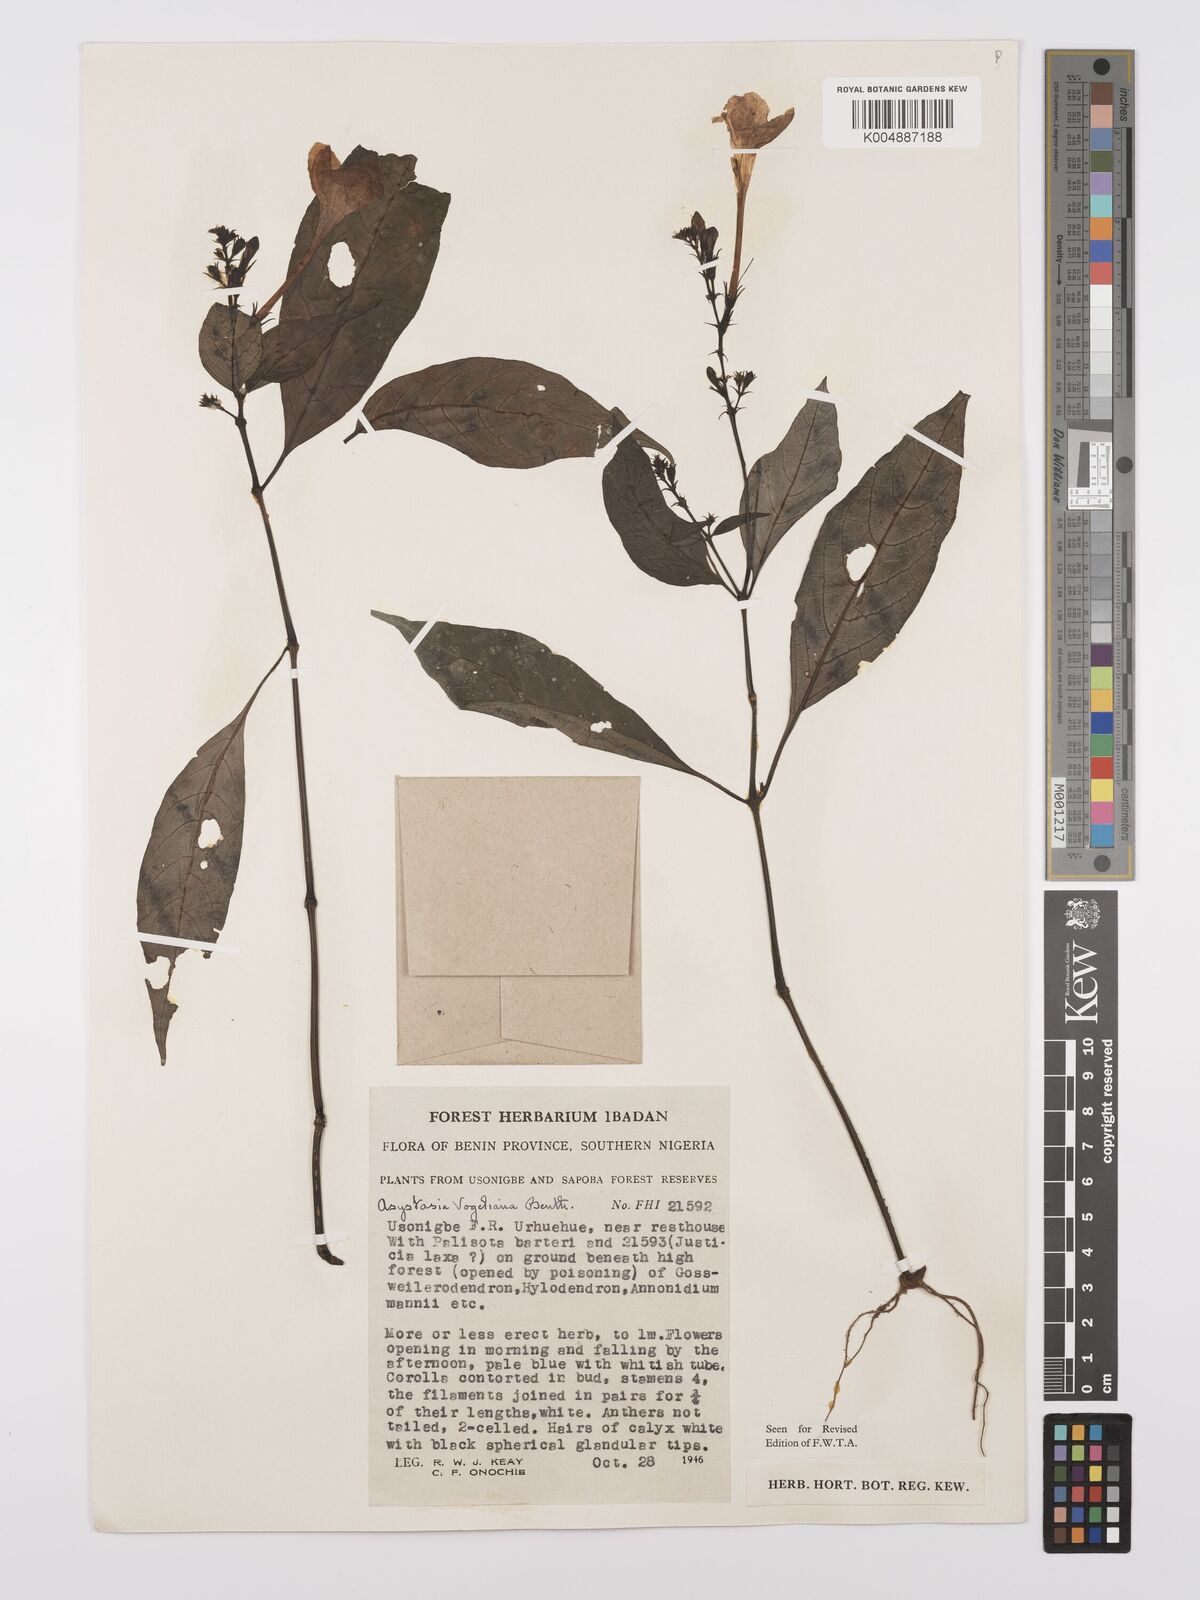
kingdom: Plantae
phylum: Tracheophyta
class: Magnoliopsida
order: Lamiales
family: Acanthaceae
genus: Asystasia
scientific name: Asystasia vogeliana
